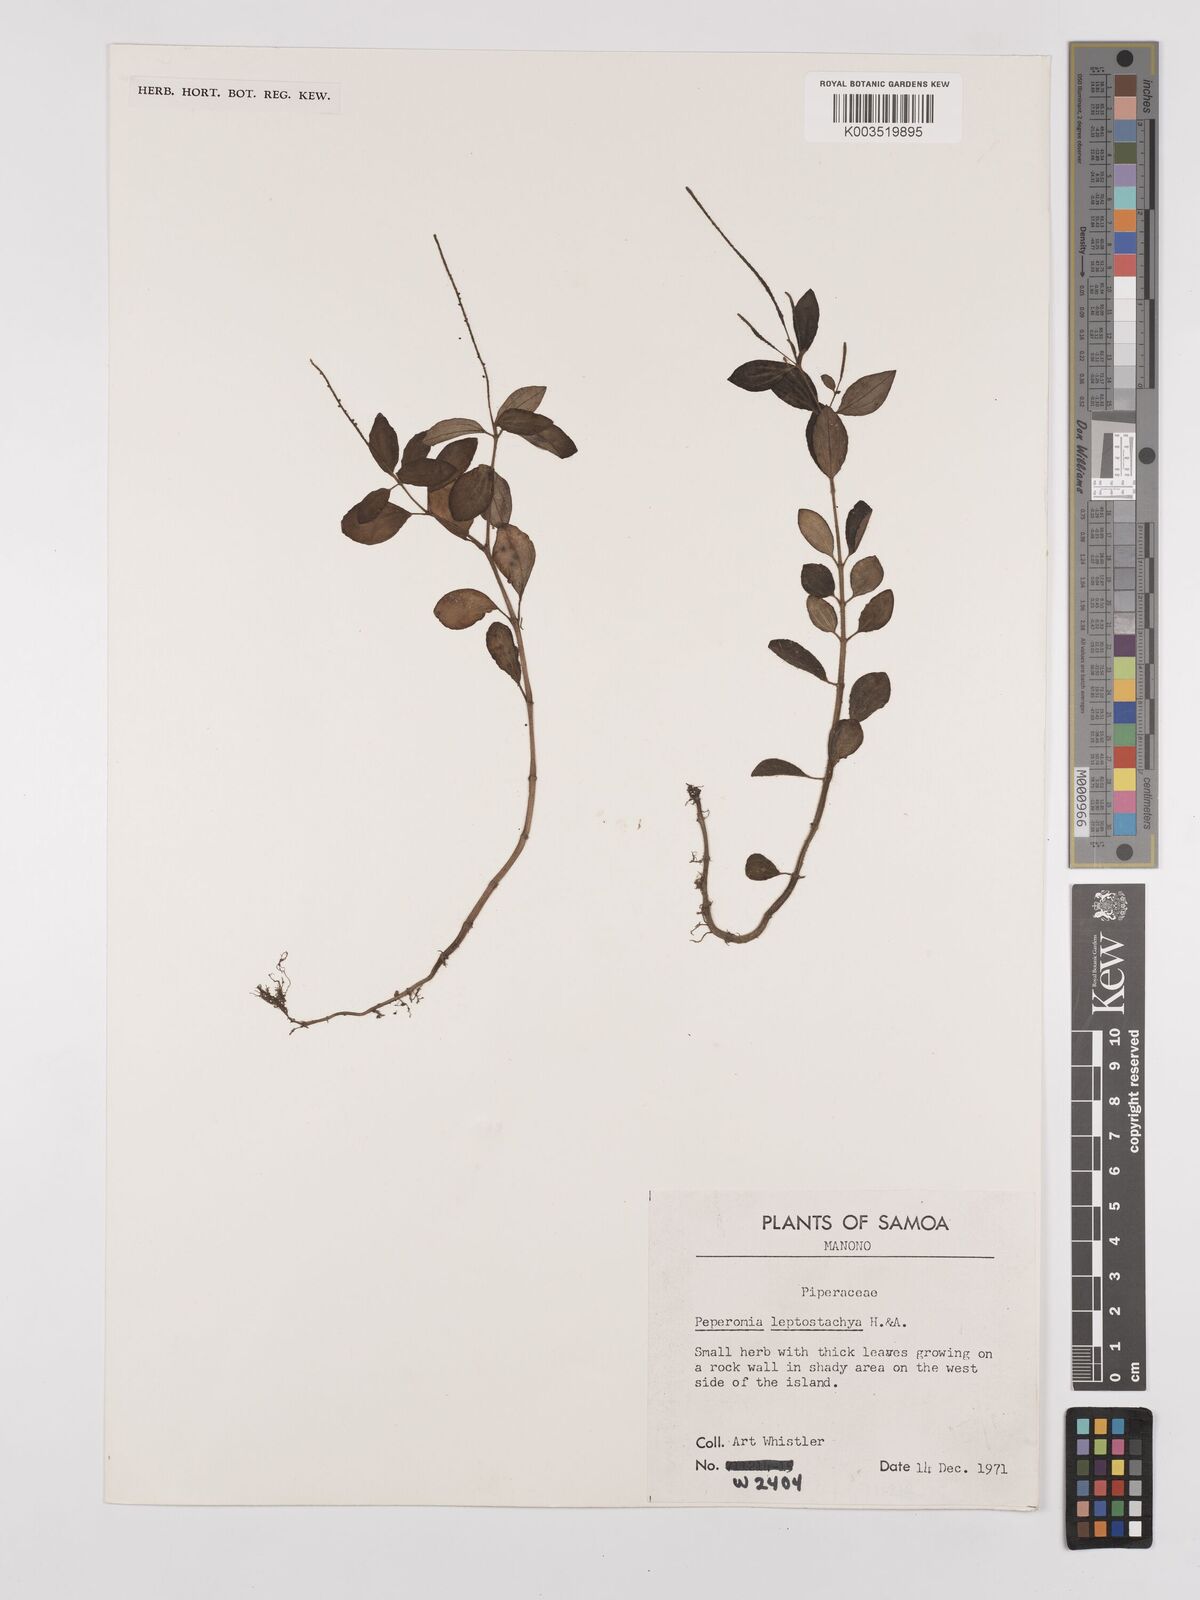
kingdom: Plantae
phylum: Tracheophyta
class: Magnoliopsida
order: Piperales
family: Piperaceae
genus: Peperomia
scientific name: Peperomia leptostachya
